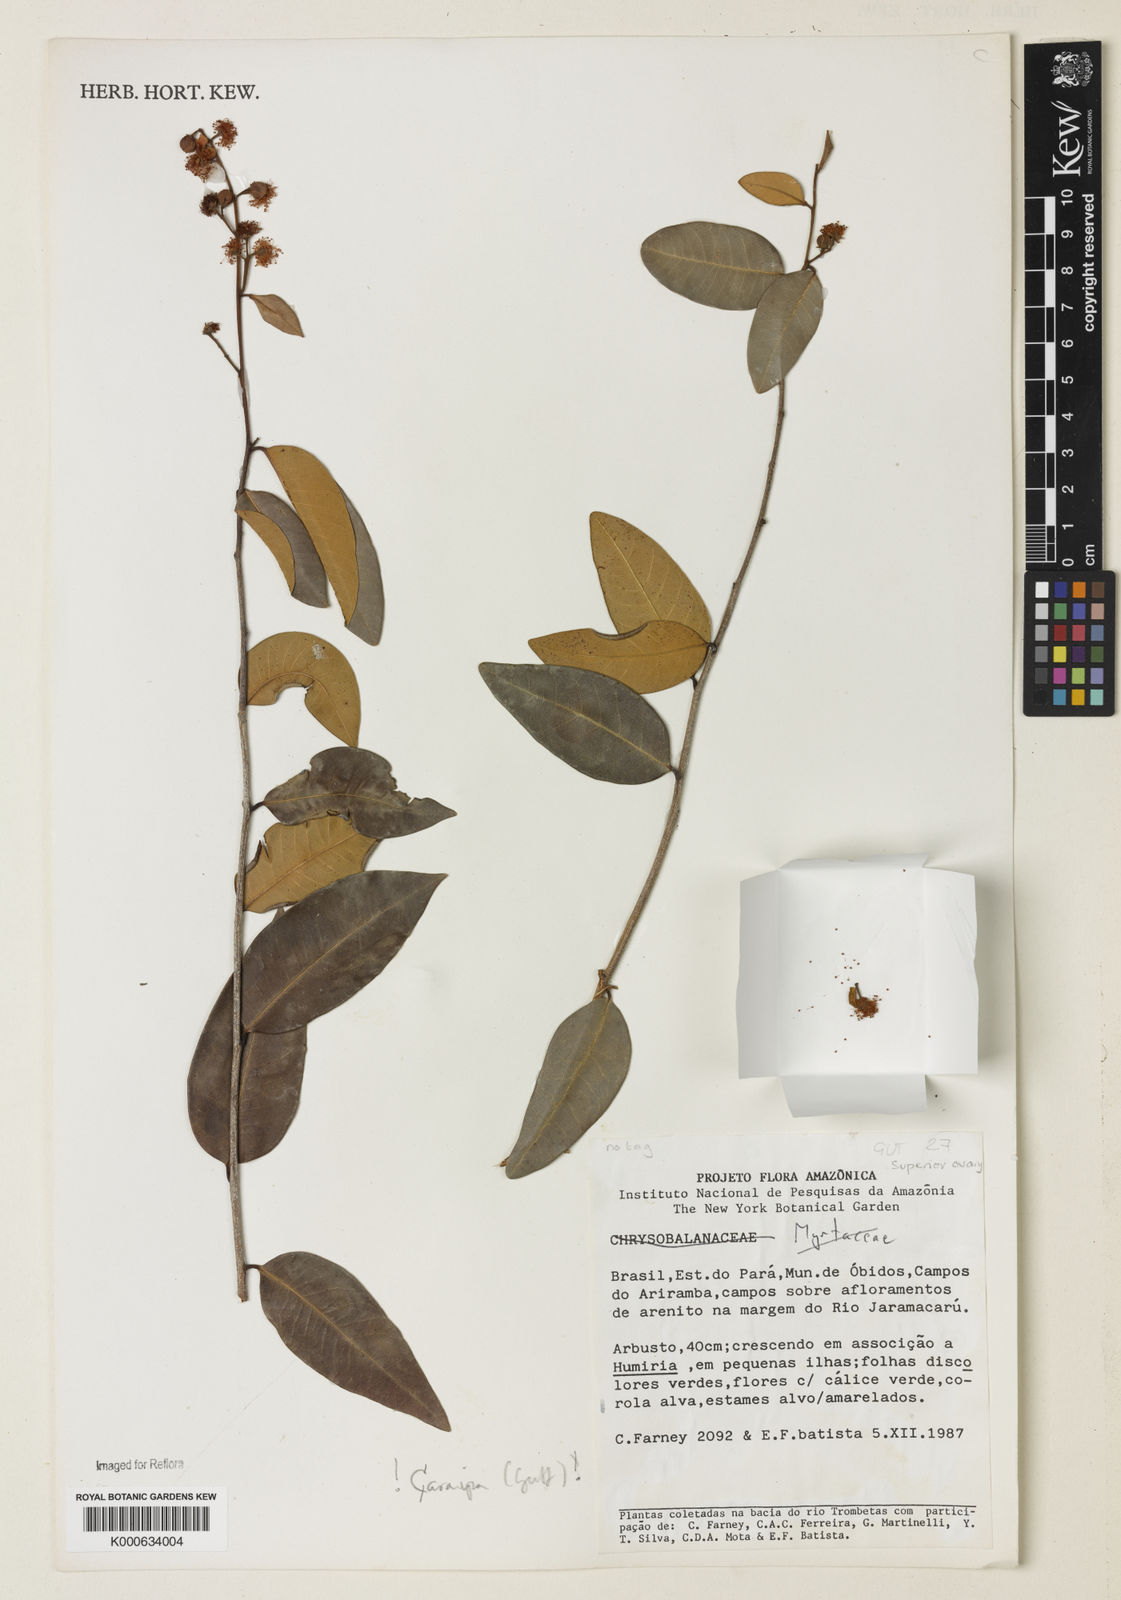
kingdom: Plantae
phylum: Tracheophyta
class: Magnoliopsida
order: Malpighiales
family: Calophyllaceae
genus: Caraipa
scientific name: Caraipa foveolata
